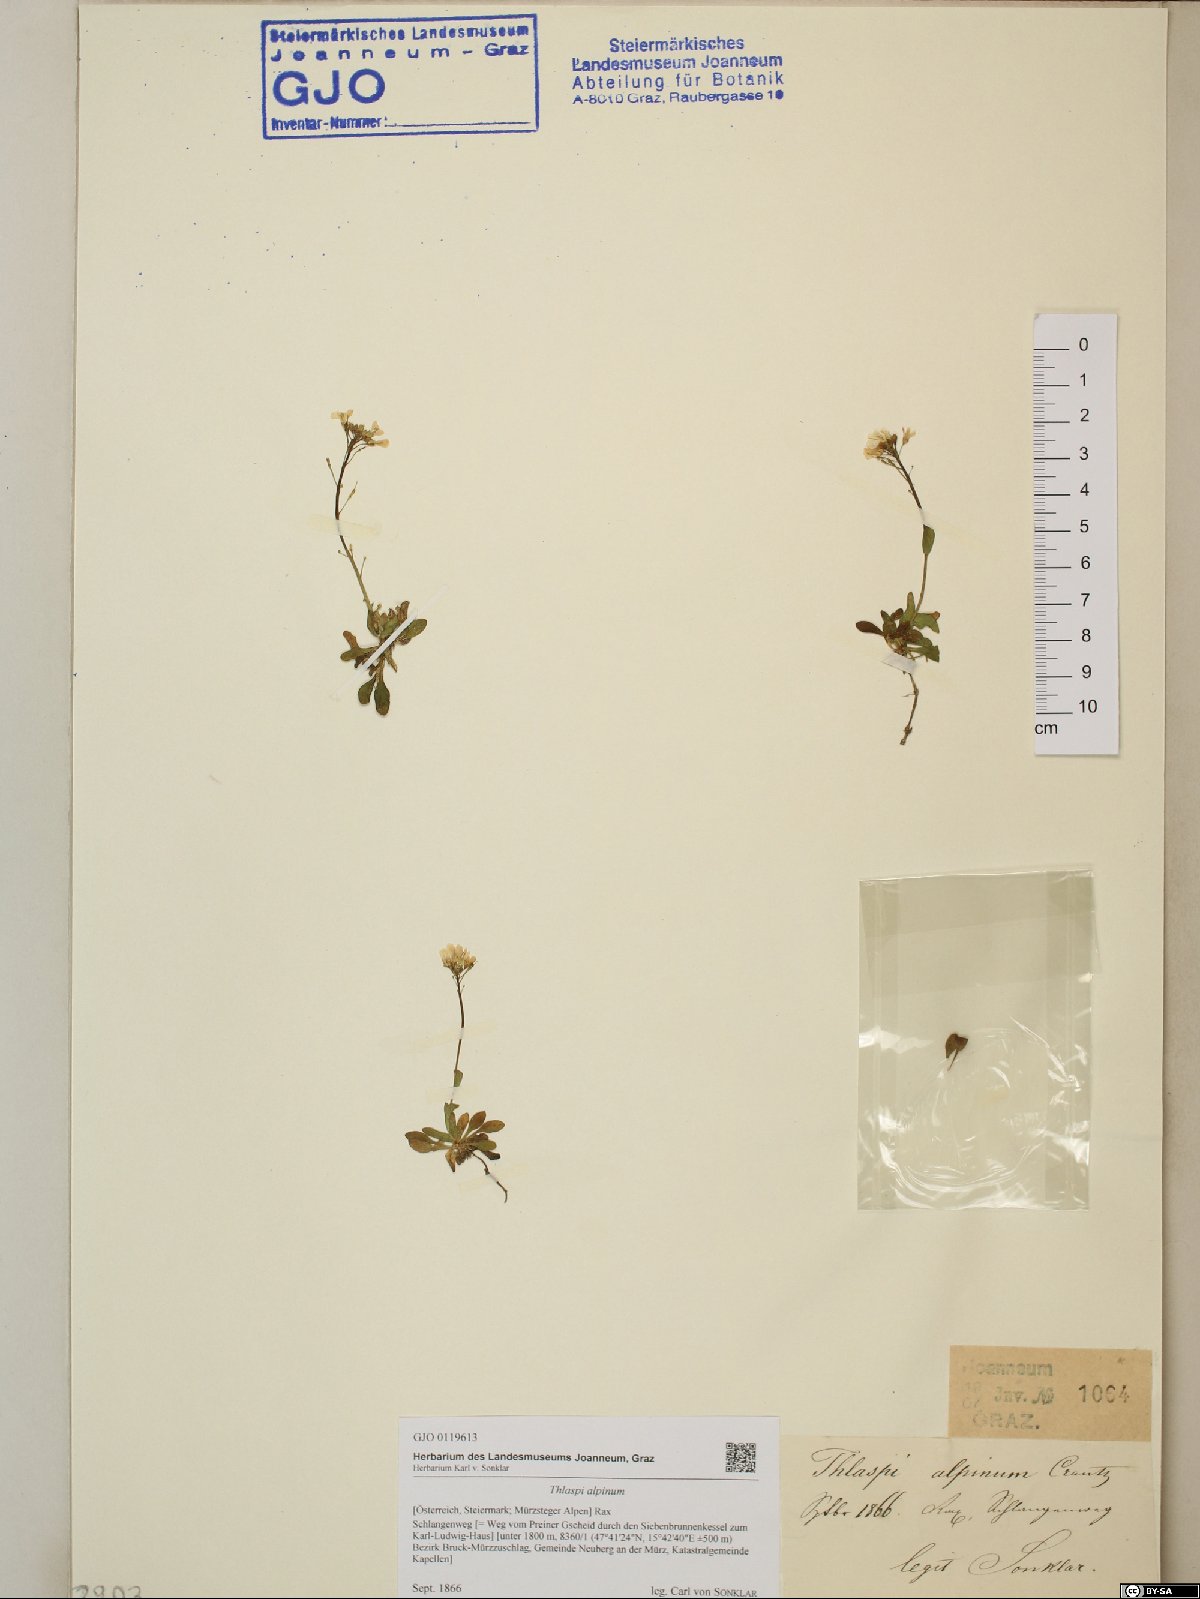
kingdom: Plantae
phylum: Tracheophyta
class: Magnoliopsida
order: Brassicales
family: Brassicaceae
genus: Noccaea
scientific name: Noccaea alpestris
